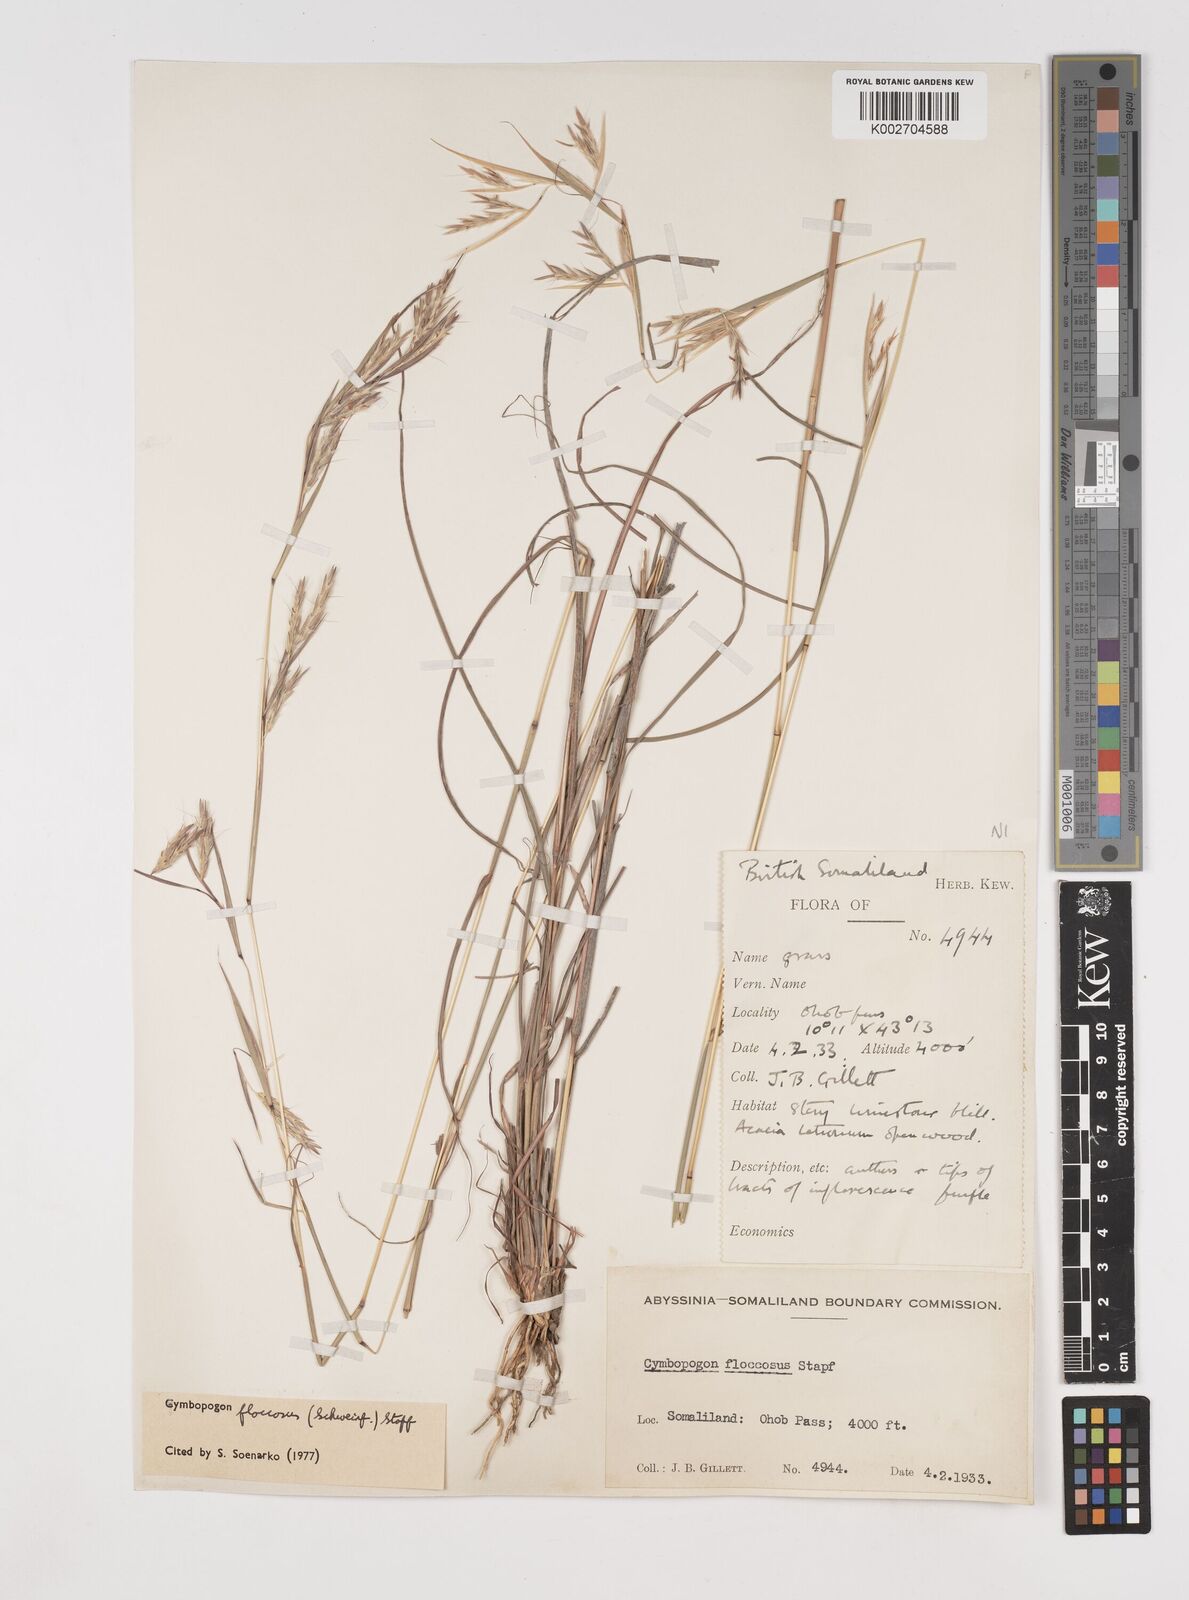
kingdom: Plantae
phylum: Tracheophyta
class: Liliopsida
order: Poales
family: Poaceae
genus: Cymbopogon
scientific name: Cymbopogon commutatus
